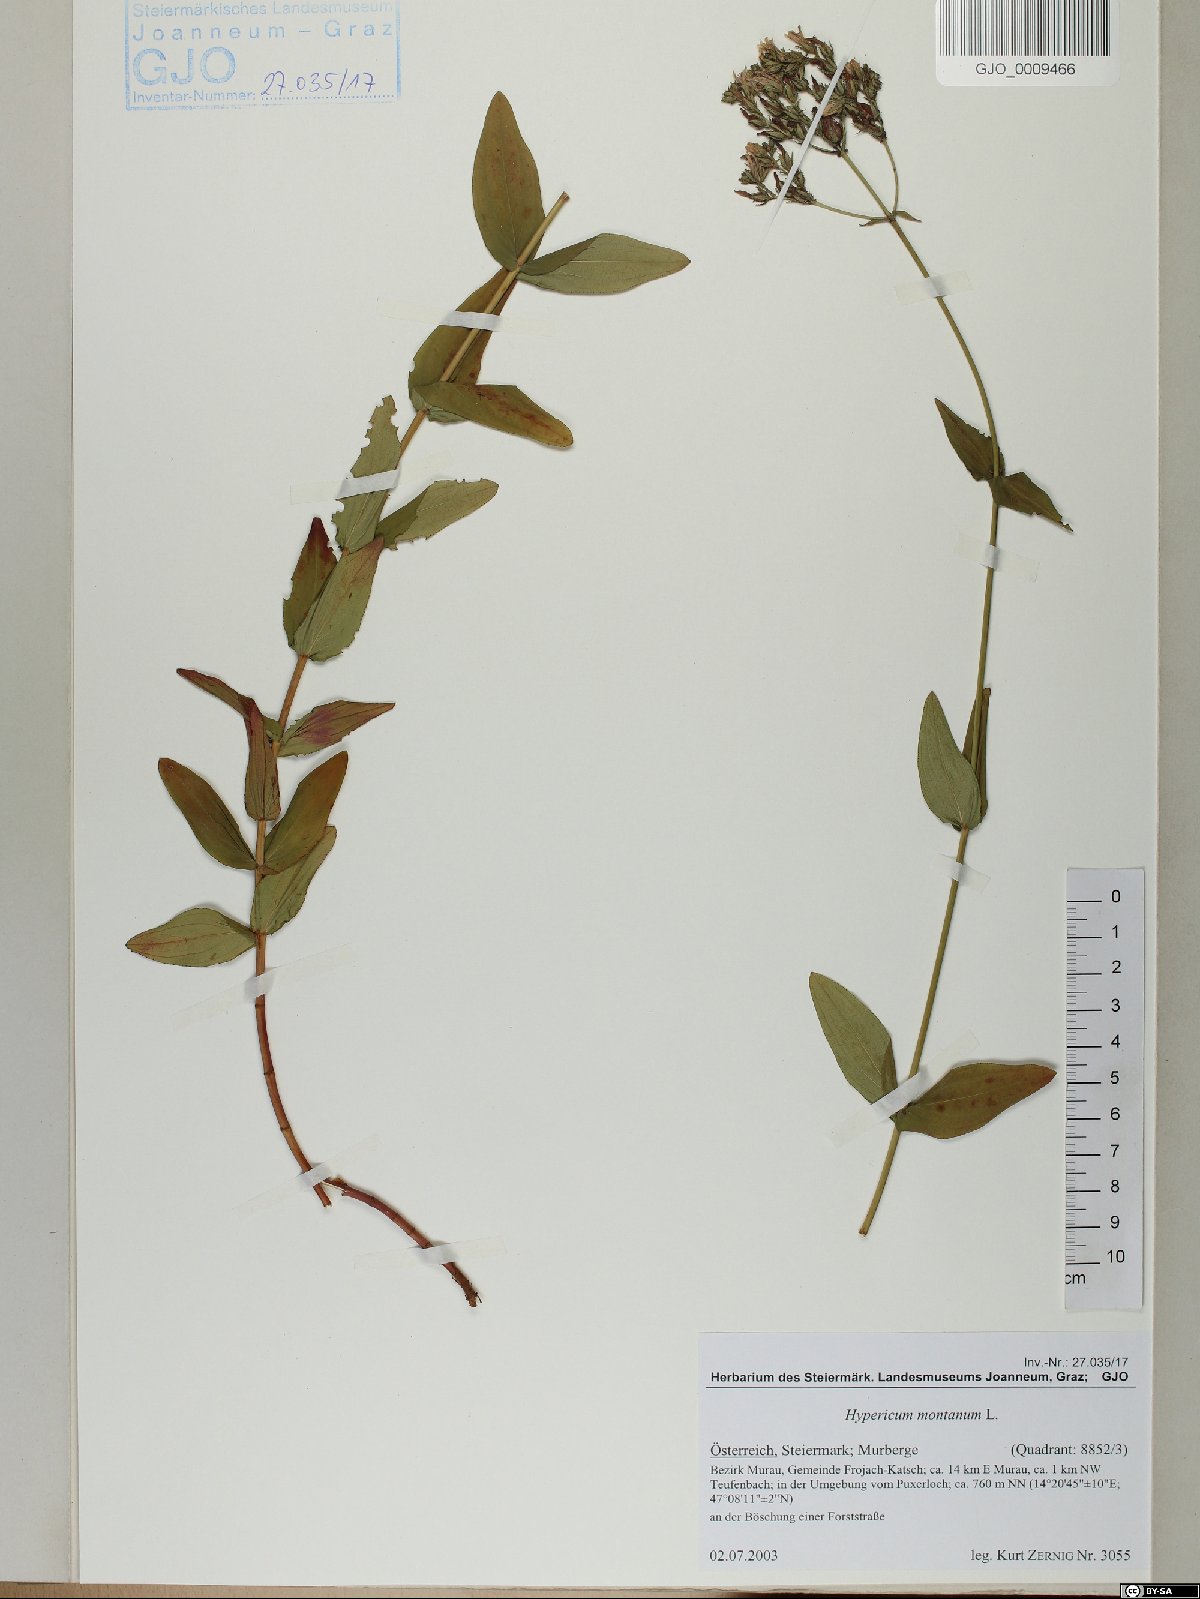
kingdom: Plantae
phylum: Tracheophyta
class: Magnoliopsida
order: Malpighiales
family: Hypericaceae
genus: Hypericum
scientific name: Hypericum montanum
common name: Pale st. john's-wort
